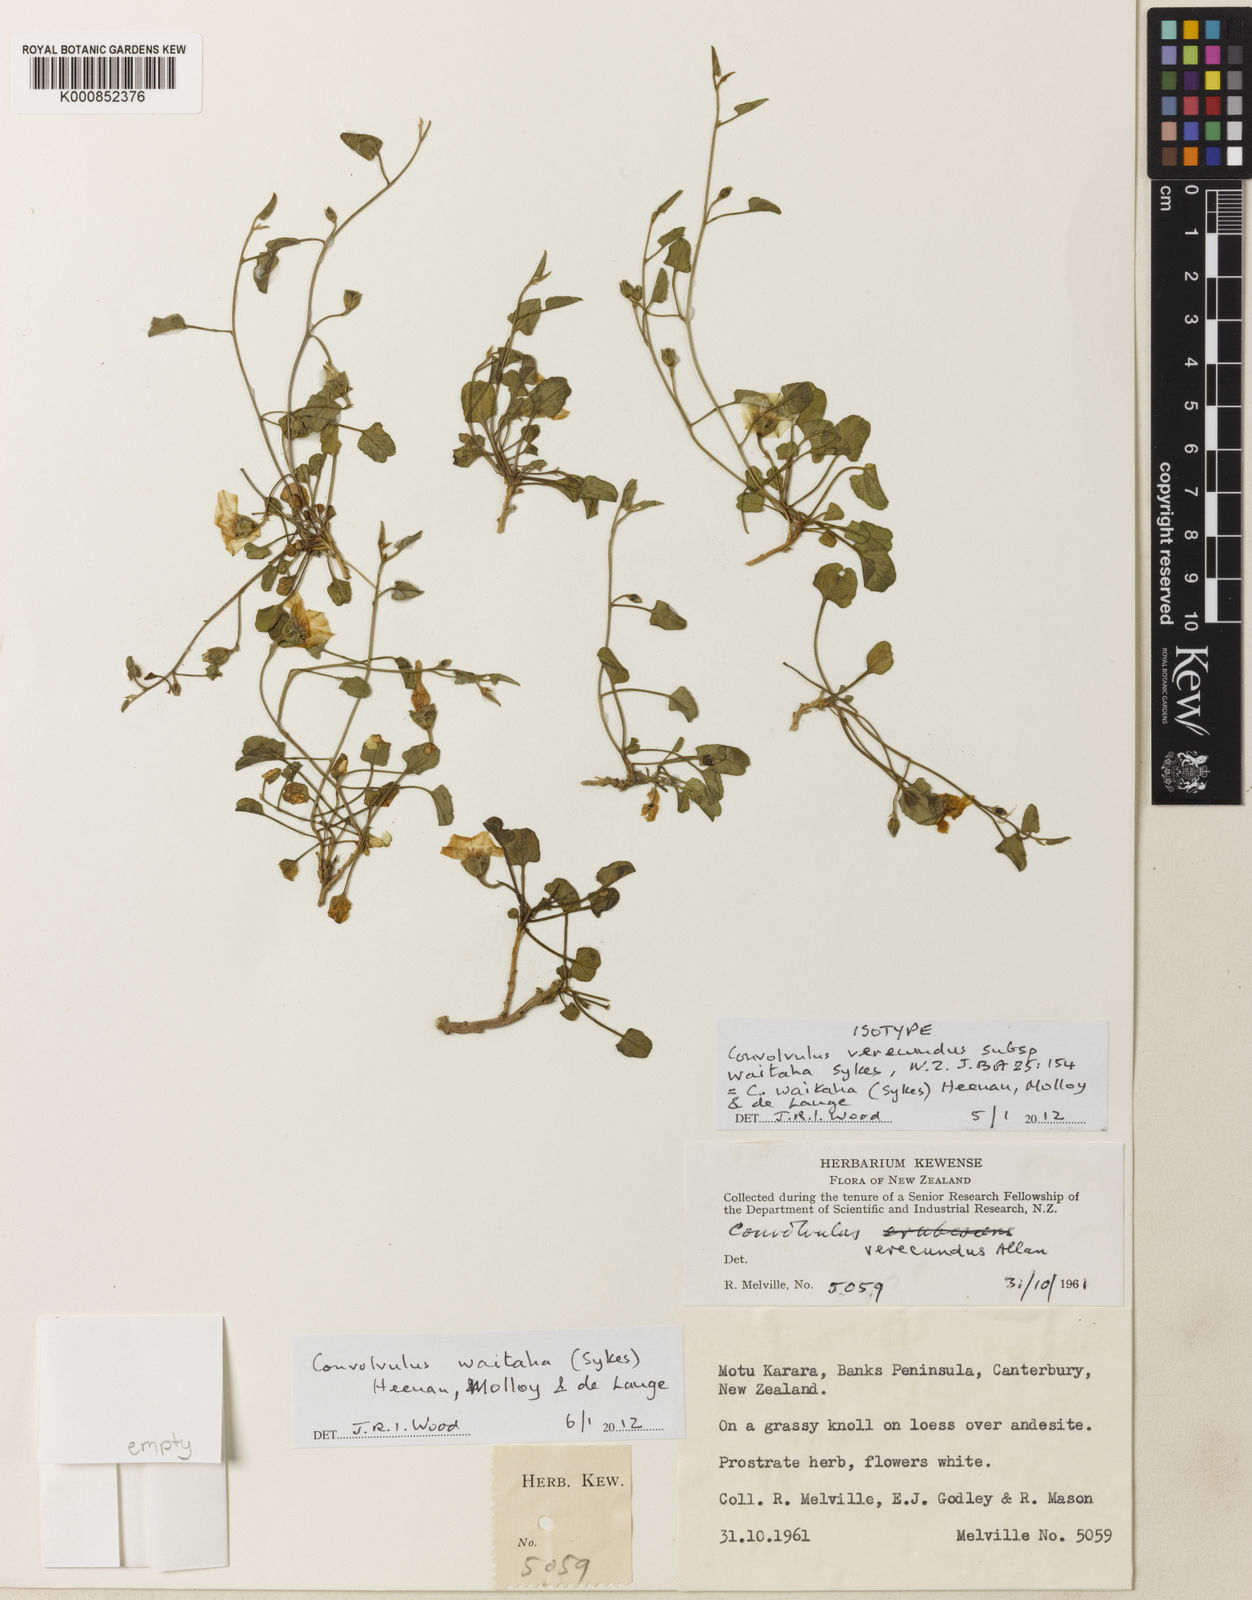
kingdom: Plantae
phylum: Tracheophyta
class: Magnoliopsida
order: Solanales
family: Convolvulaceae
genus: Convolvulus
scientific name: Convolvulus waitaha
